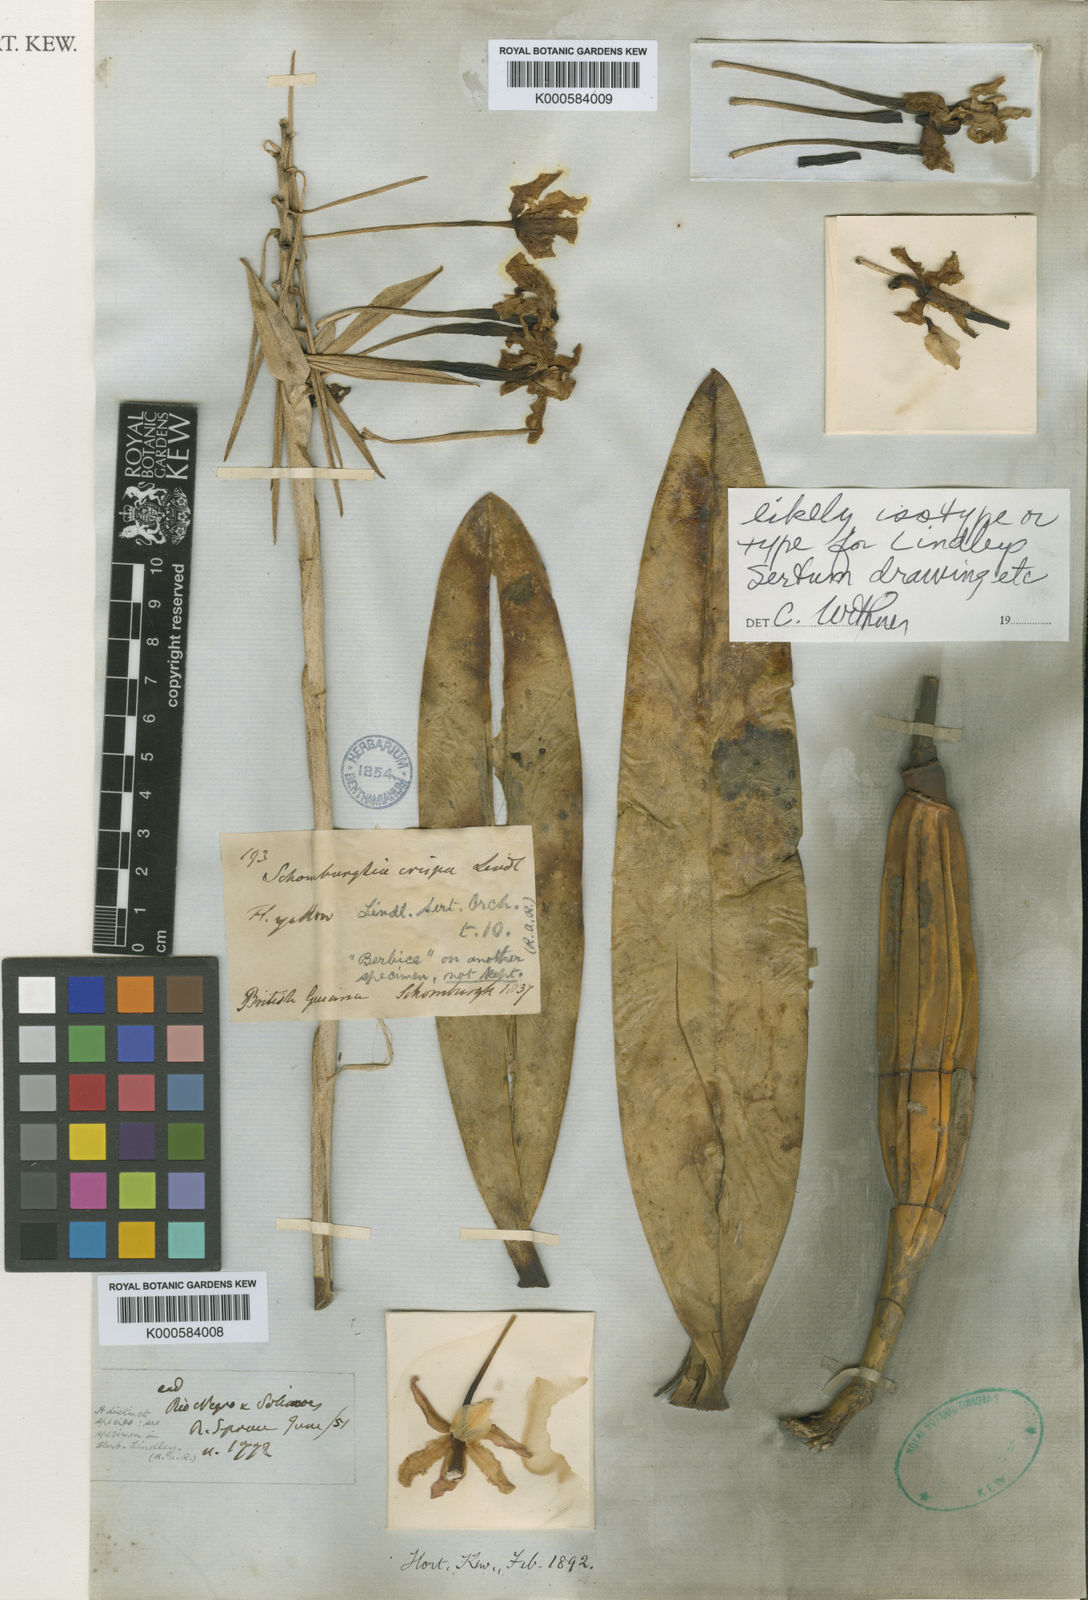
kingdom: Plantae
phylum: Tracheophyta
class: Liliopsida
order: Asparagales
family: Orchidaceae
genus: Laelia
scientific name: Laelia marginata
